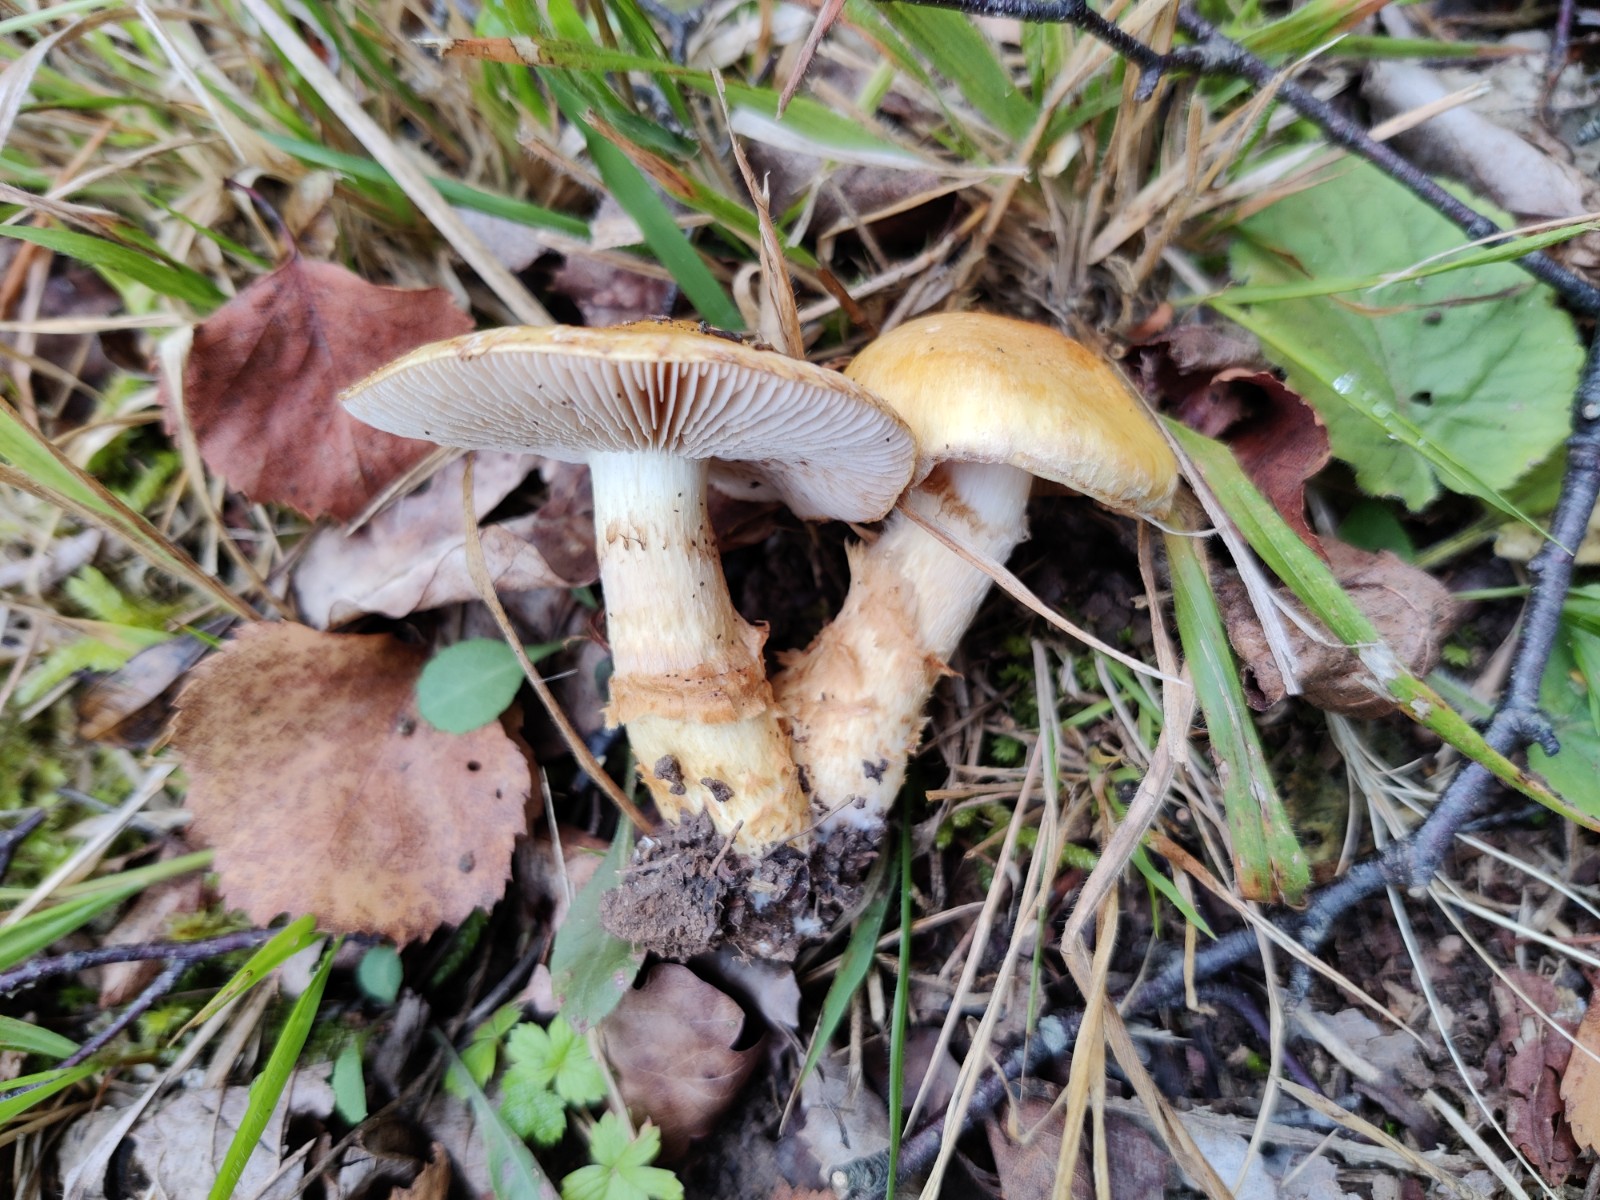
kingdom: Fungi
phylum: Basidiomycota
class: Agaricomycetes
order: Agaricales
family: Cortinariaceae
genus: Phlegmacium
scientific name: Phlegmacium triumphans
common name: gulbæltet slørhat
